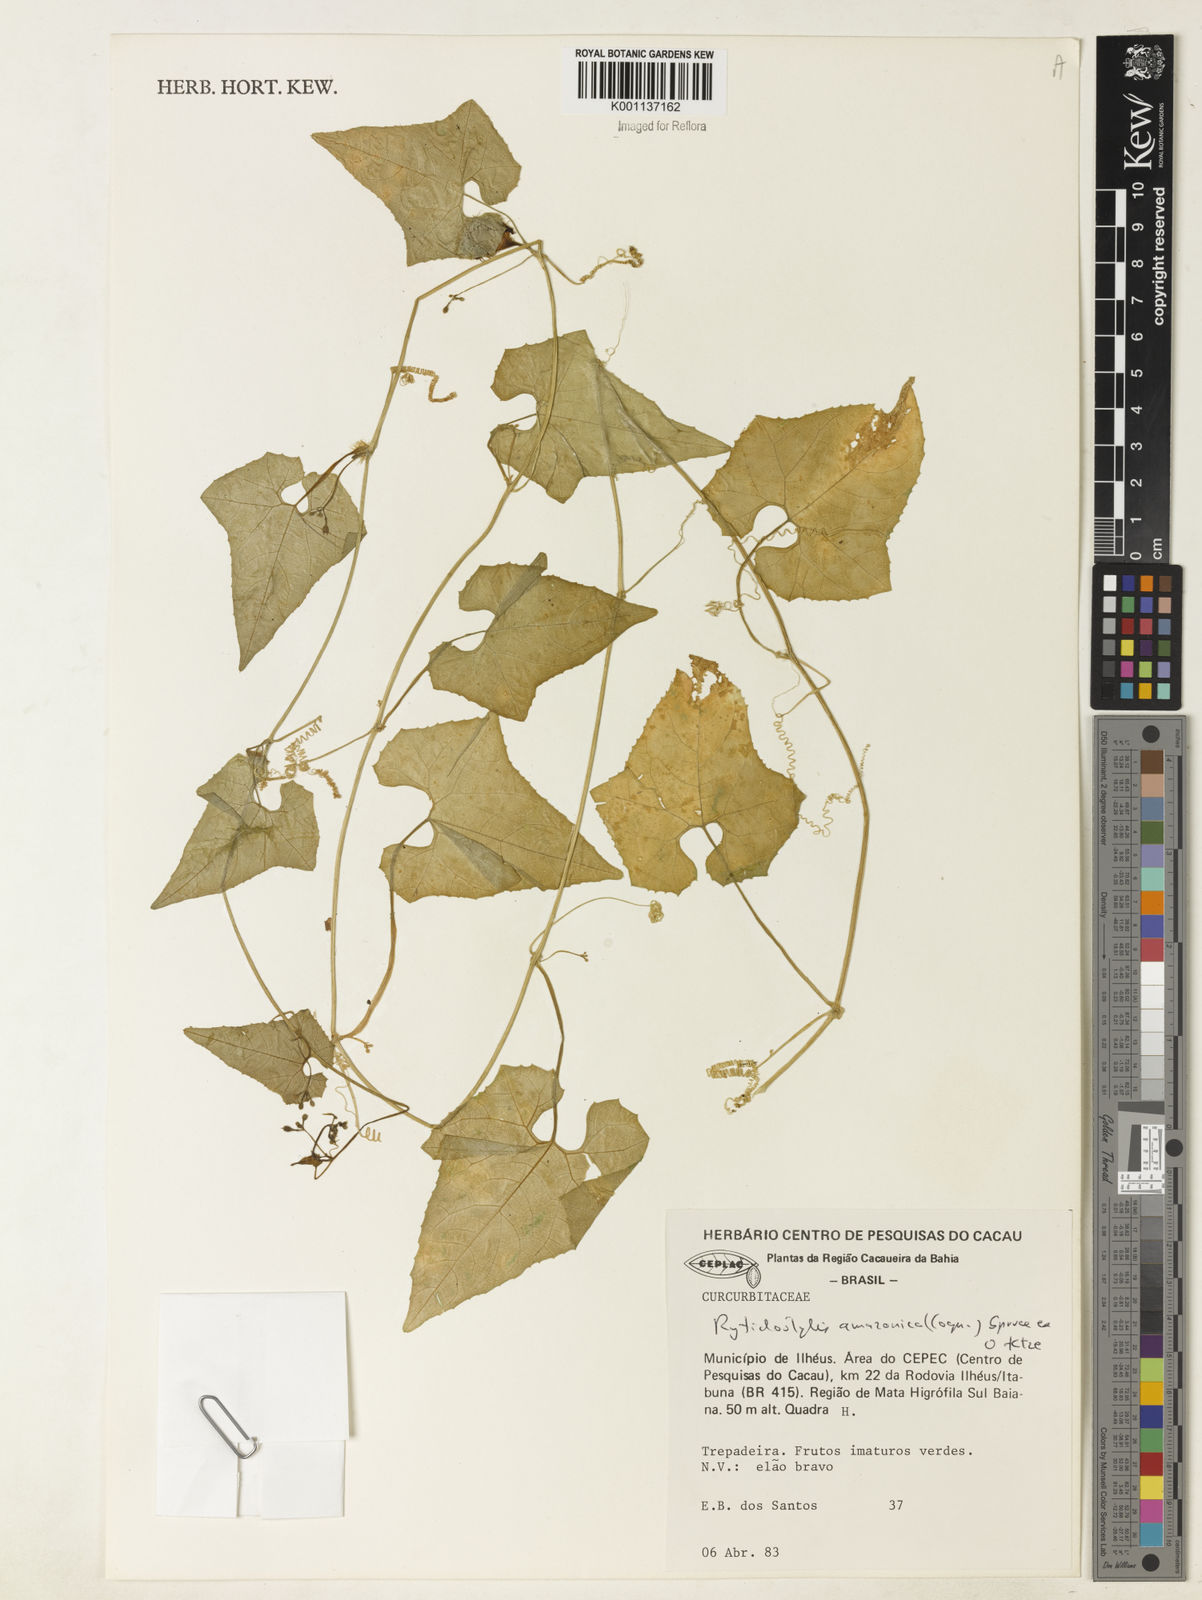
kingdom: Plantae
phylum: Tracheophyta
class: Magnoliopsida
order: Cucurbitales
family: Cucurbitaceae
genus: Cyclanthera
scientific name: Cyclanthera carthagenensis
